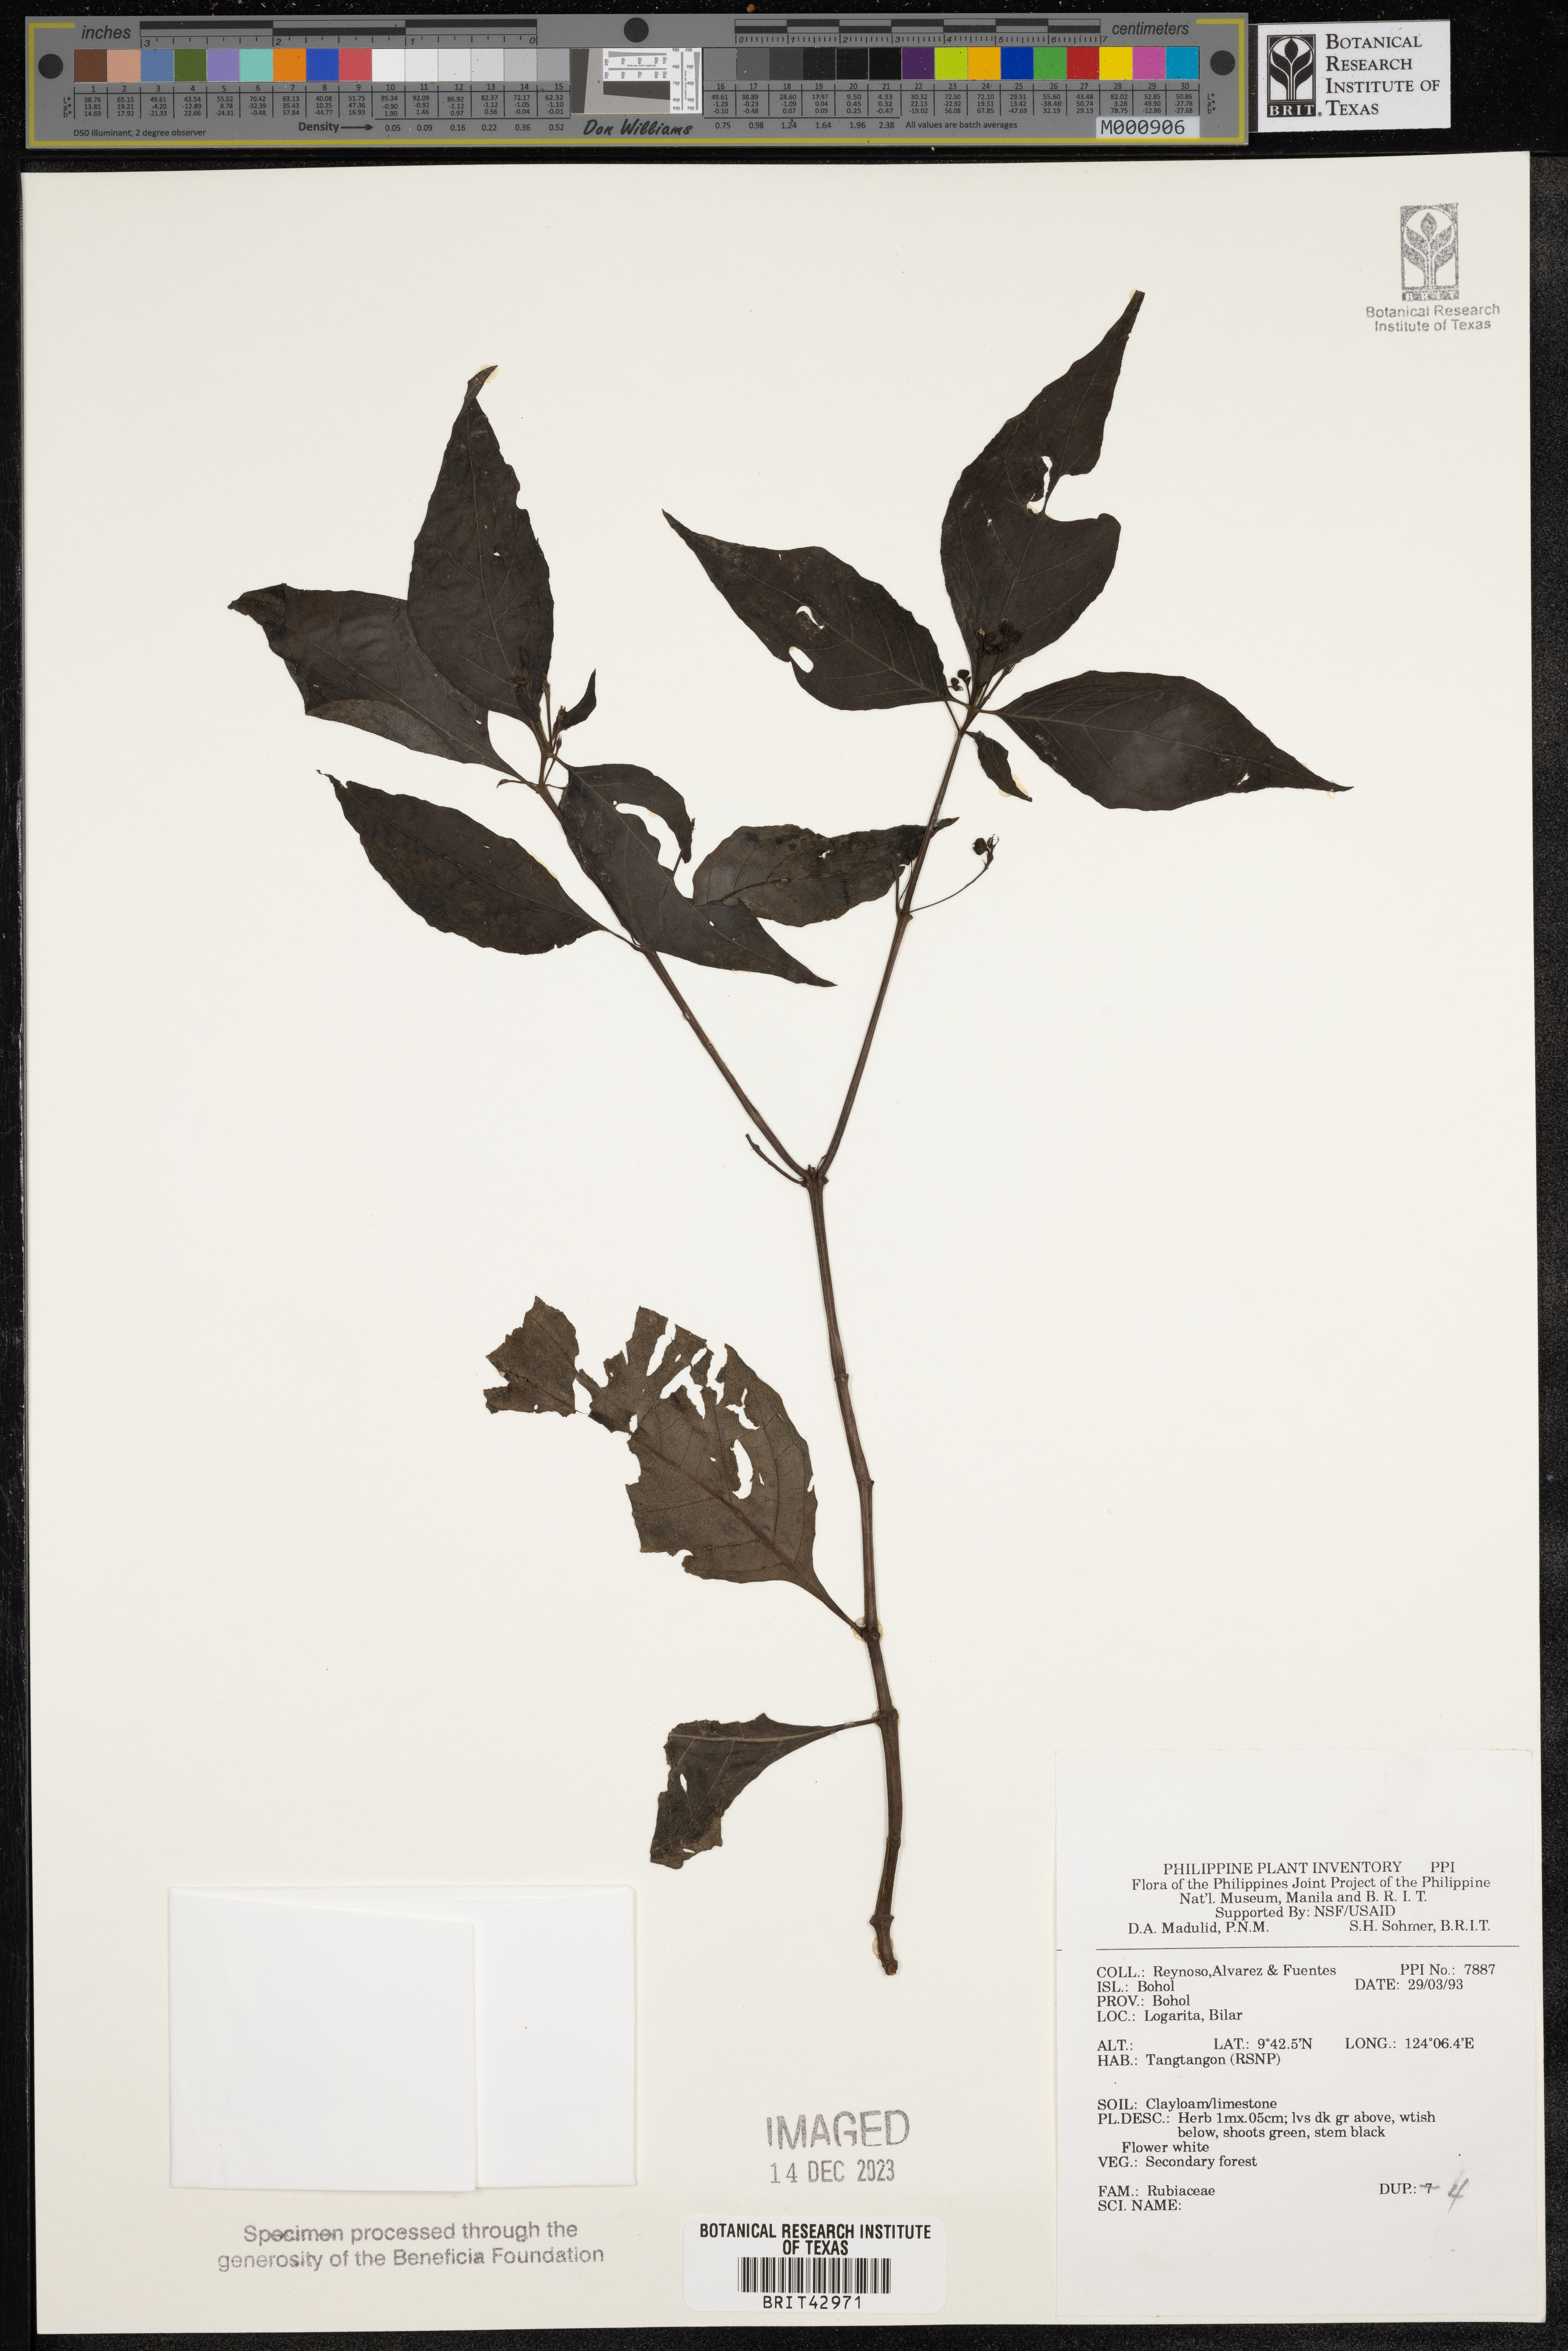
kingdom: Plantae
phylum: Tracheophyta
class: Magnoliopsida
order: Gentianales
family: Rubiaceae
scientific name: Rubiaceae
